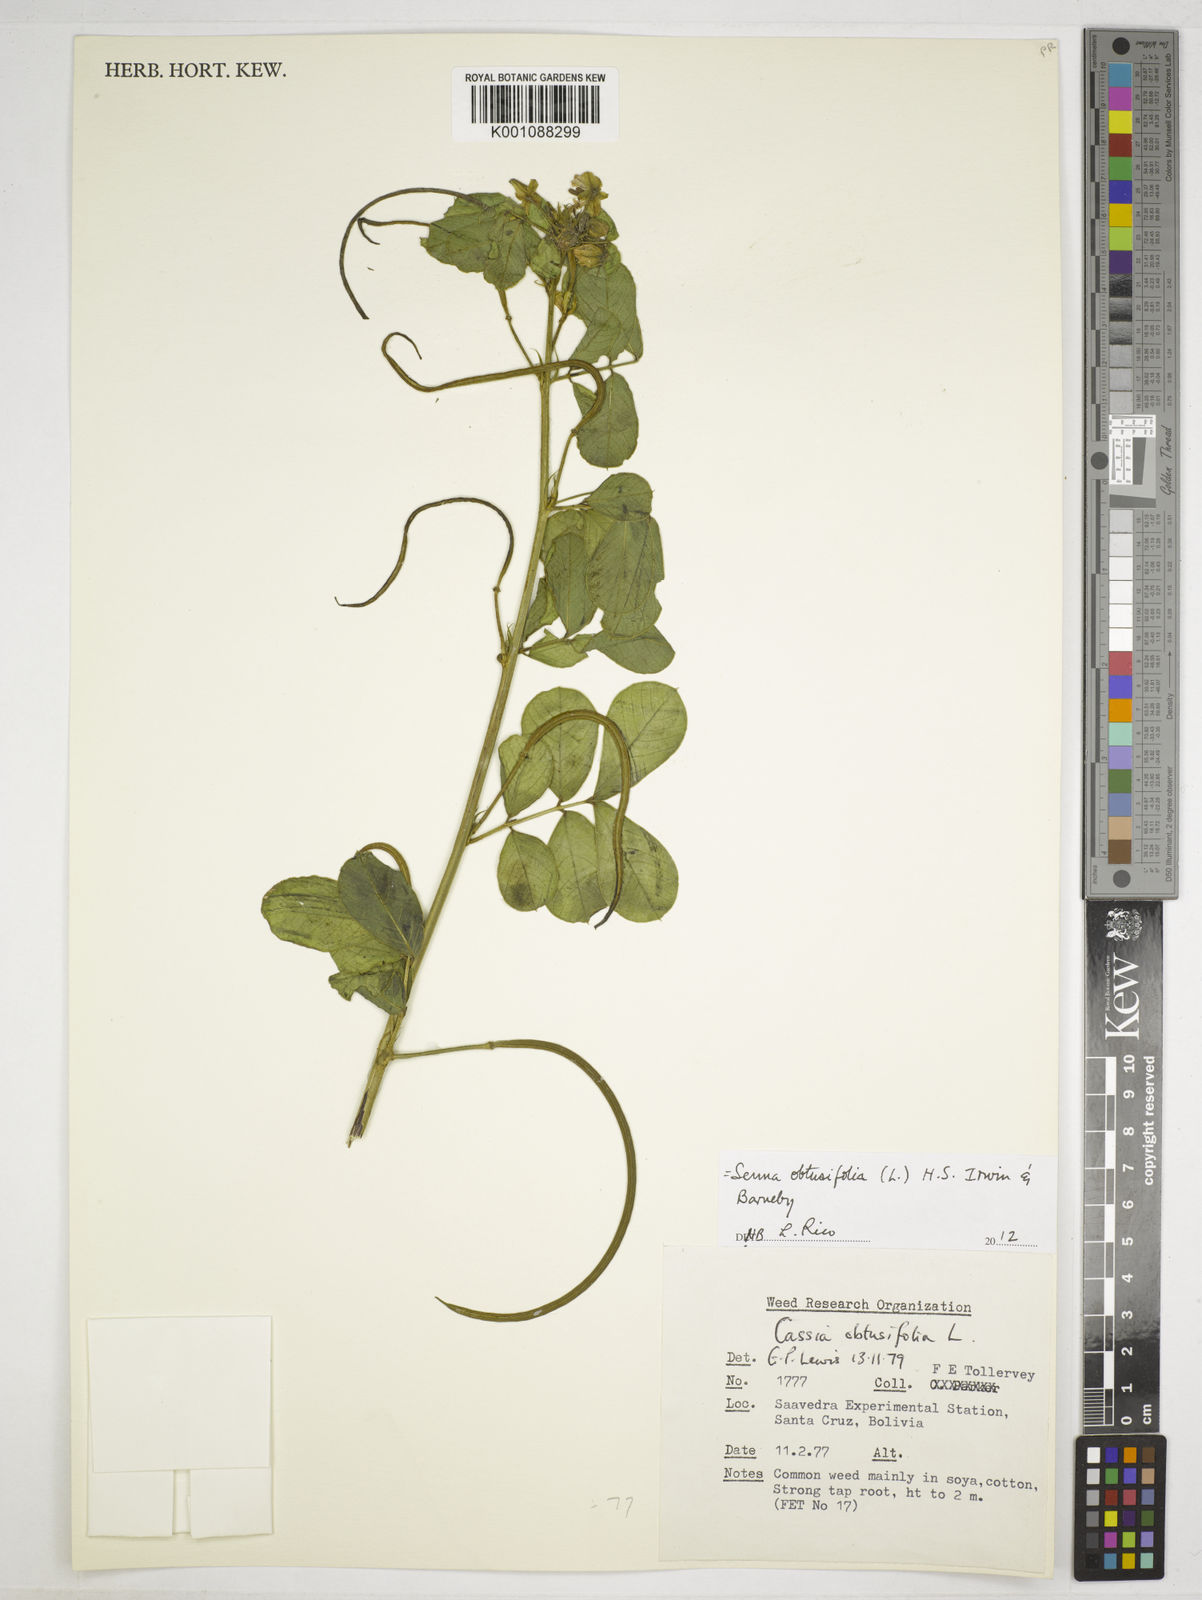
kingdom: Plantae
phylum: Tracheophyta
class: Magnoliopsida
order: Fabales
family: Fabaceae
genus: Senna
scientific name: Senna obtusifolia
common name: Java-bean
